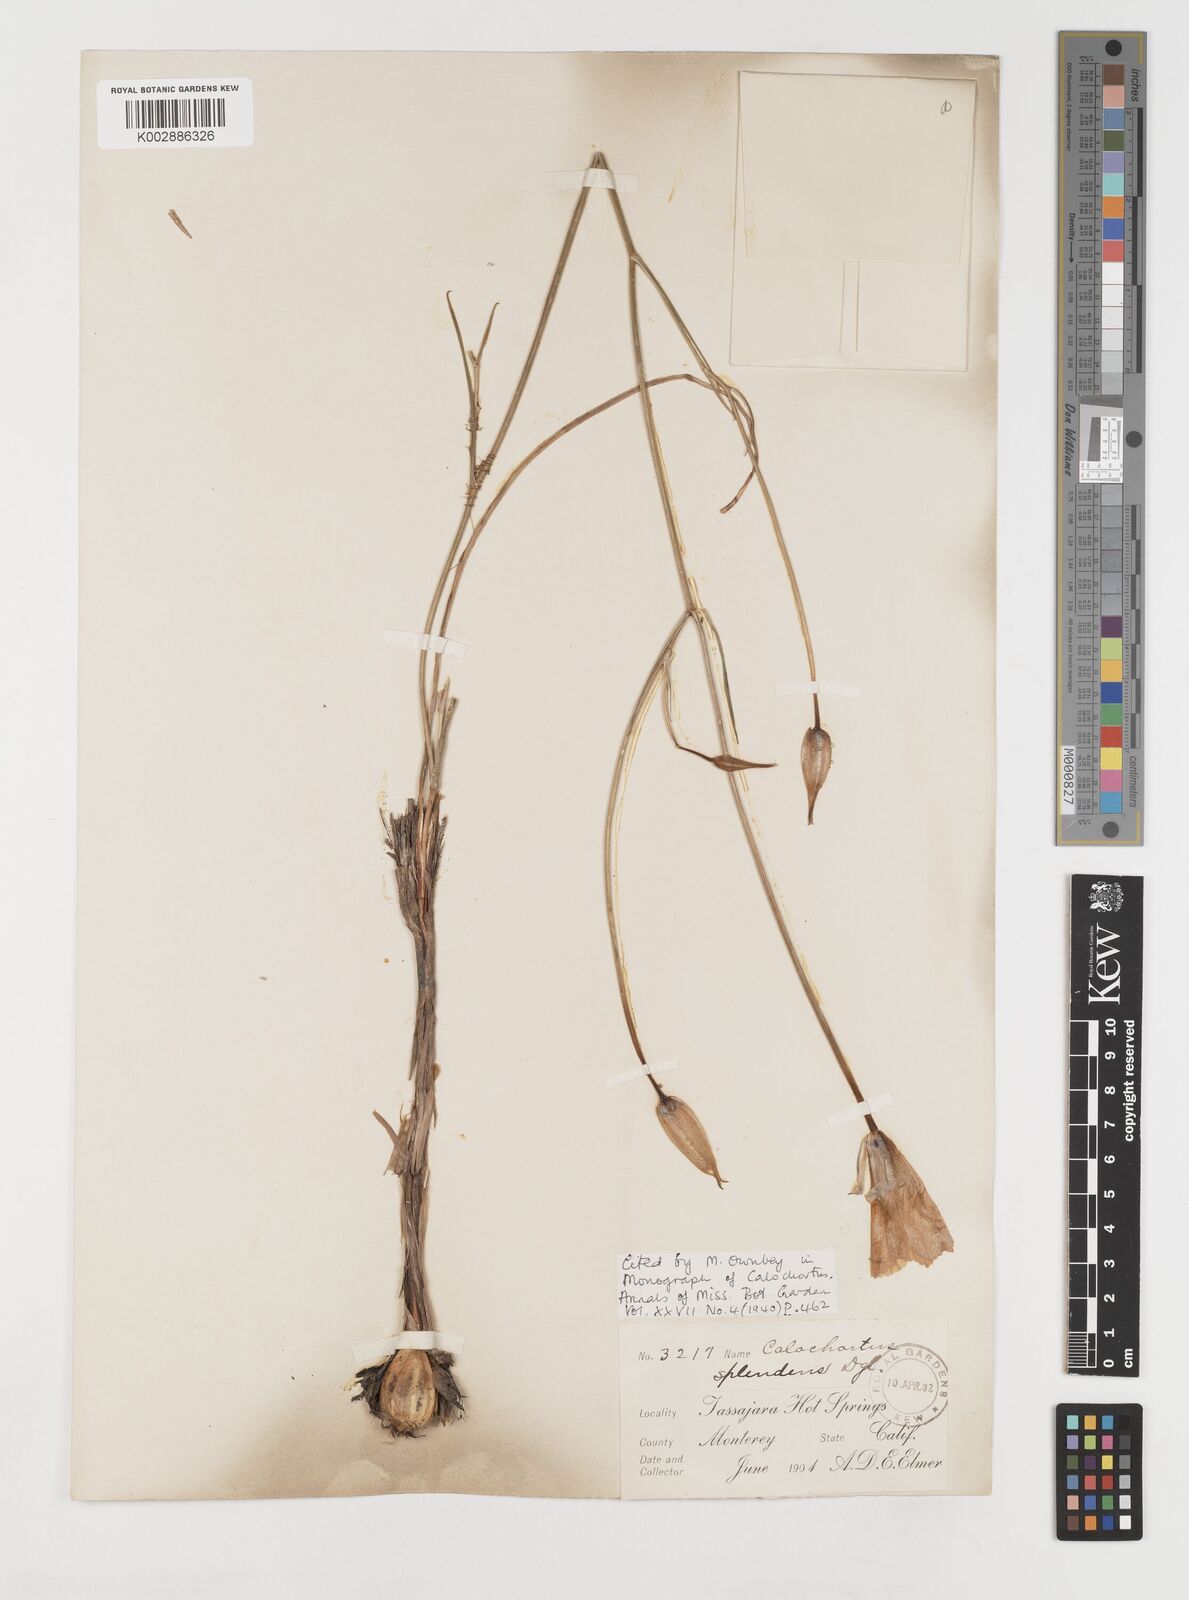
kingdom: Plantae
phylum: Tracheophyta
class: Liliopsida
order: Liliales
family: Liliaceae
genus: Calochortus
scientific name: Calochortus splendens
